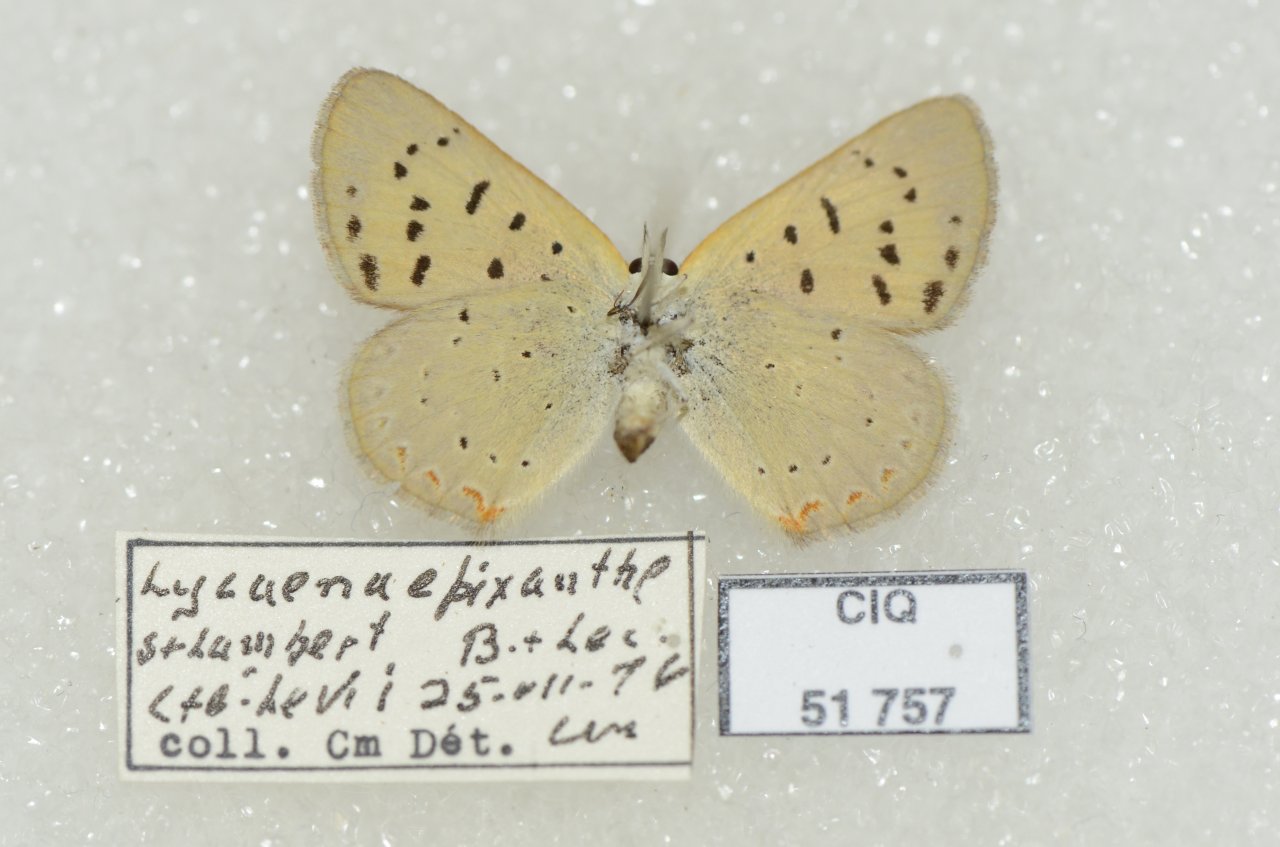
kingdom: Animalia
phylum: Arthropoda
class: Insecta
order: Lepidoptera
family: Sesiidae
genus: Sesia
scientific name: Sesia Lycaena epixanthe
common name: Bog Copper
